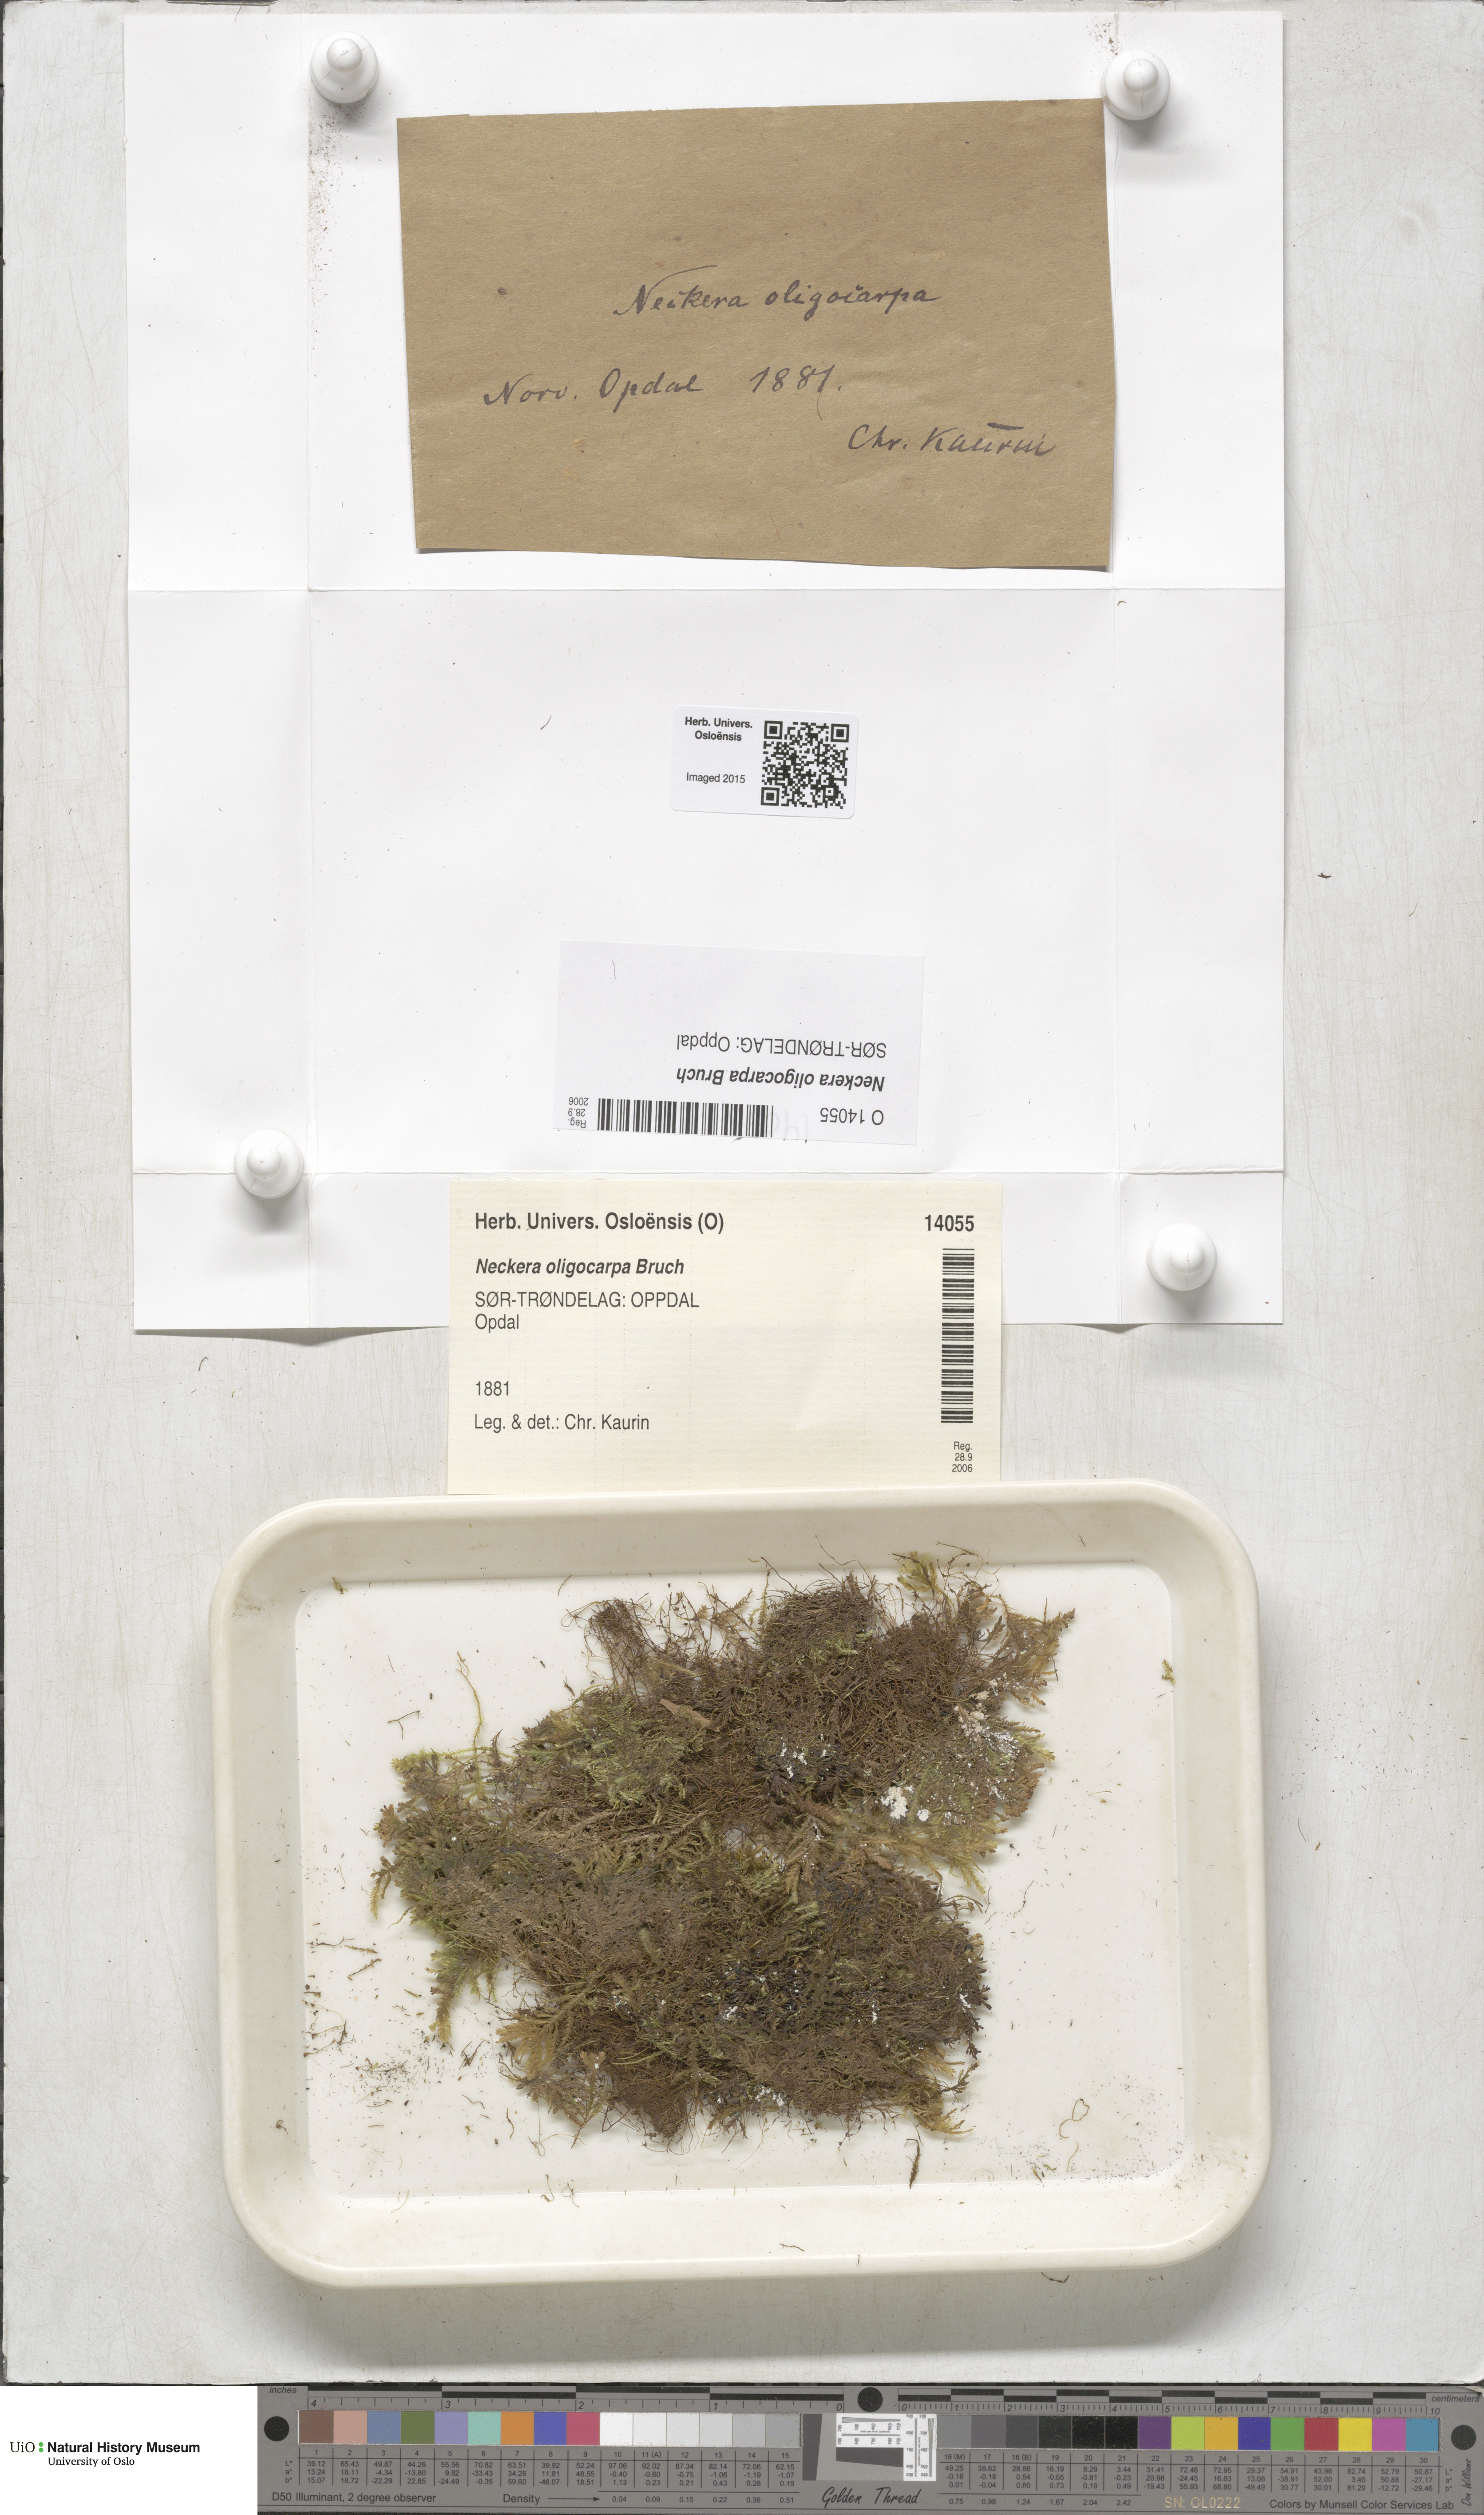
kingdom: Plantae
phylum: Bryophyta
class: Bryopsida
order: Hypnales
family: Neckeraceae
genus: Neckera
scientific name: Neckera oligocarpa
